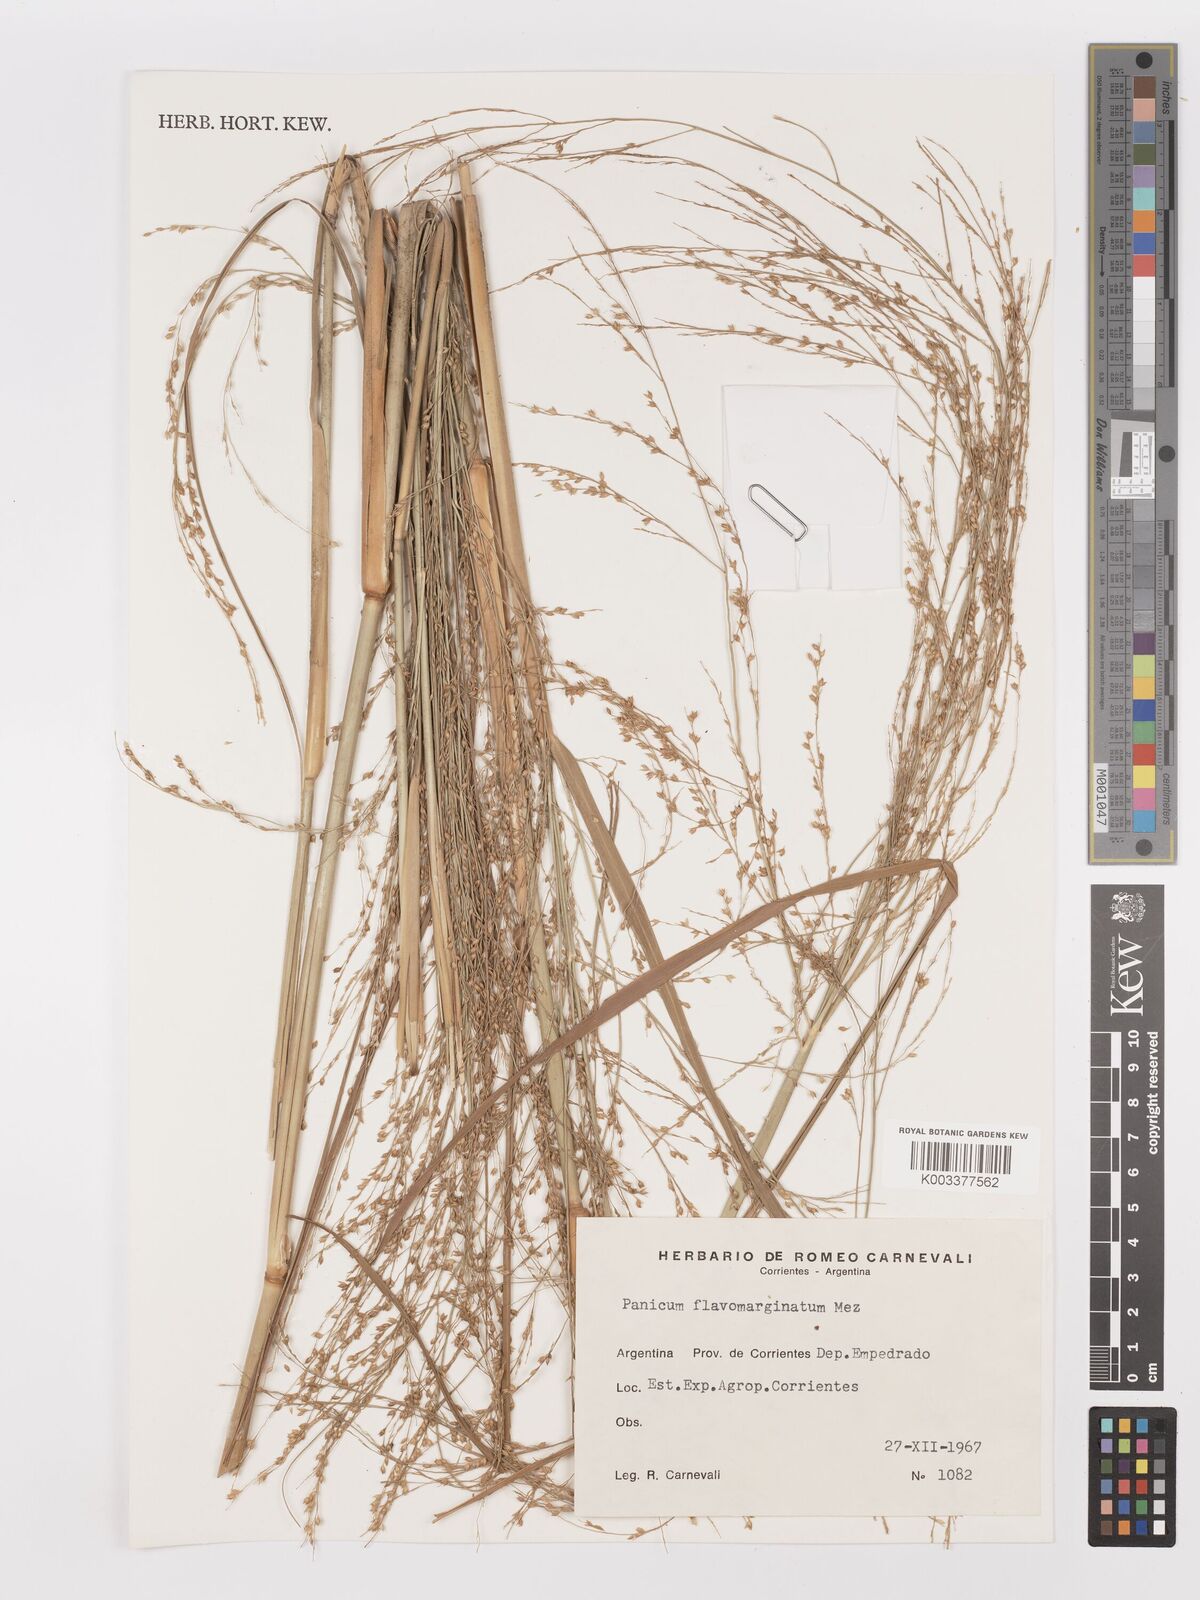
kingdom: Plantae
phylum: Tracheophyta
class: Liliopsida
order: Poales
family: Poaceae
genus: Panicum
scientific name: Panicum tricholaenoides
